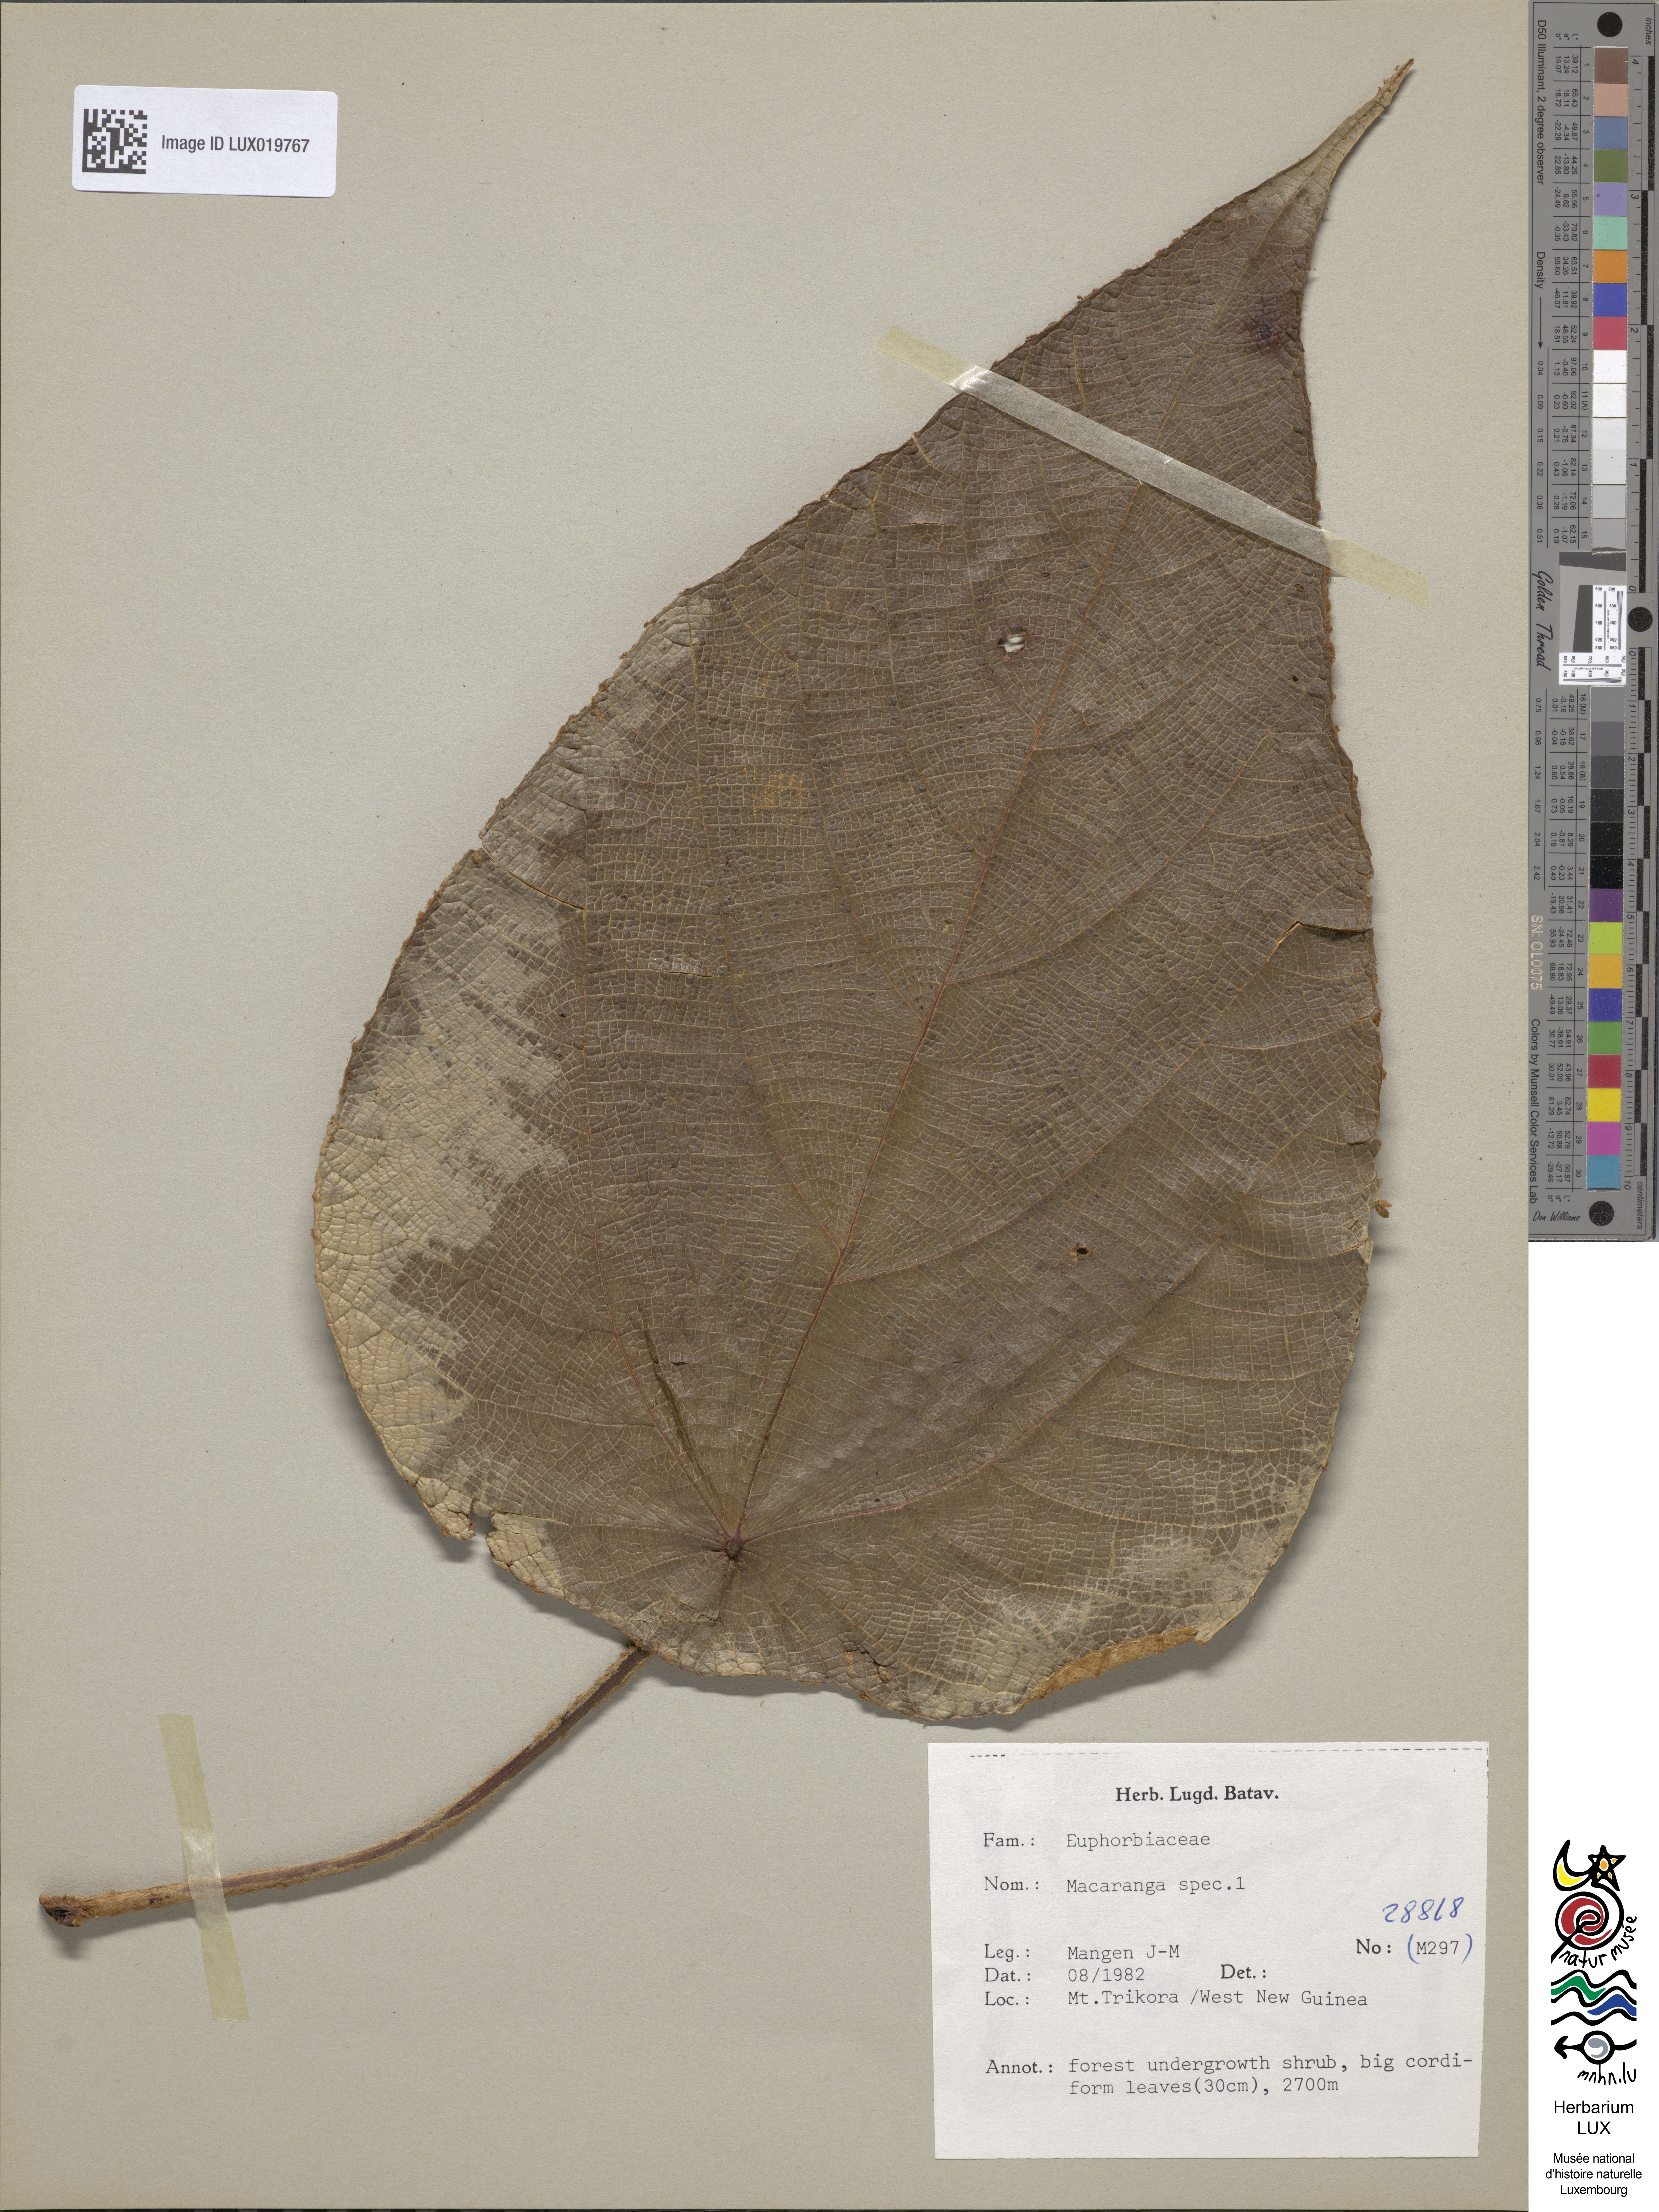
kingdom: Plantae
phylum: Tracheophyta
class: Magnoliopsida
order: Malpighiales
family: Euphorbiaceae
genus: Macaranga
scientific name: Macaranga
